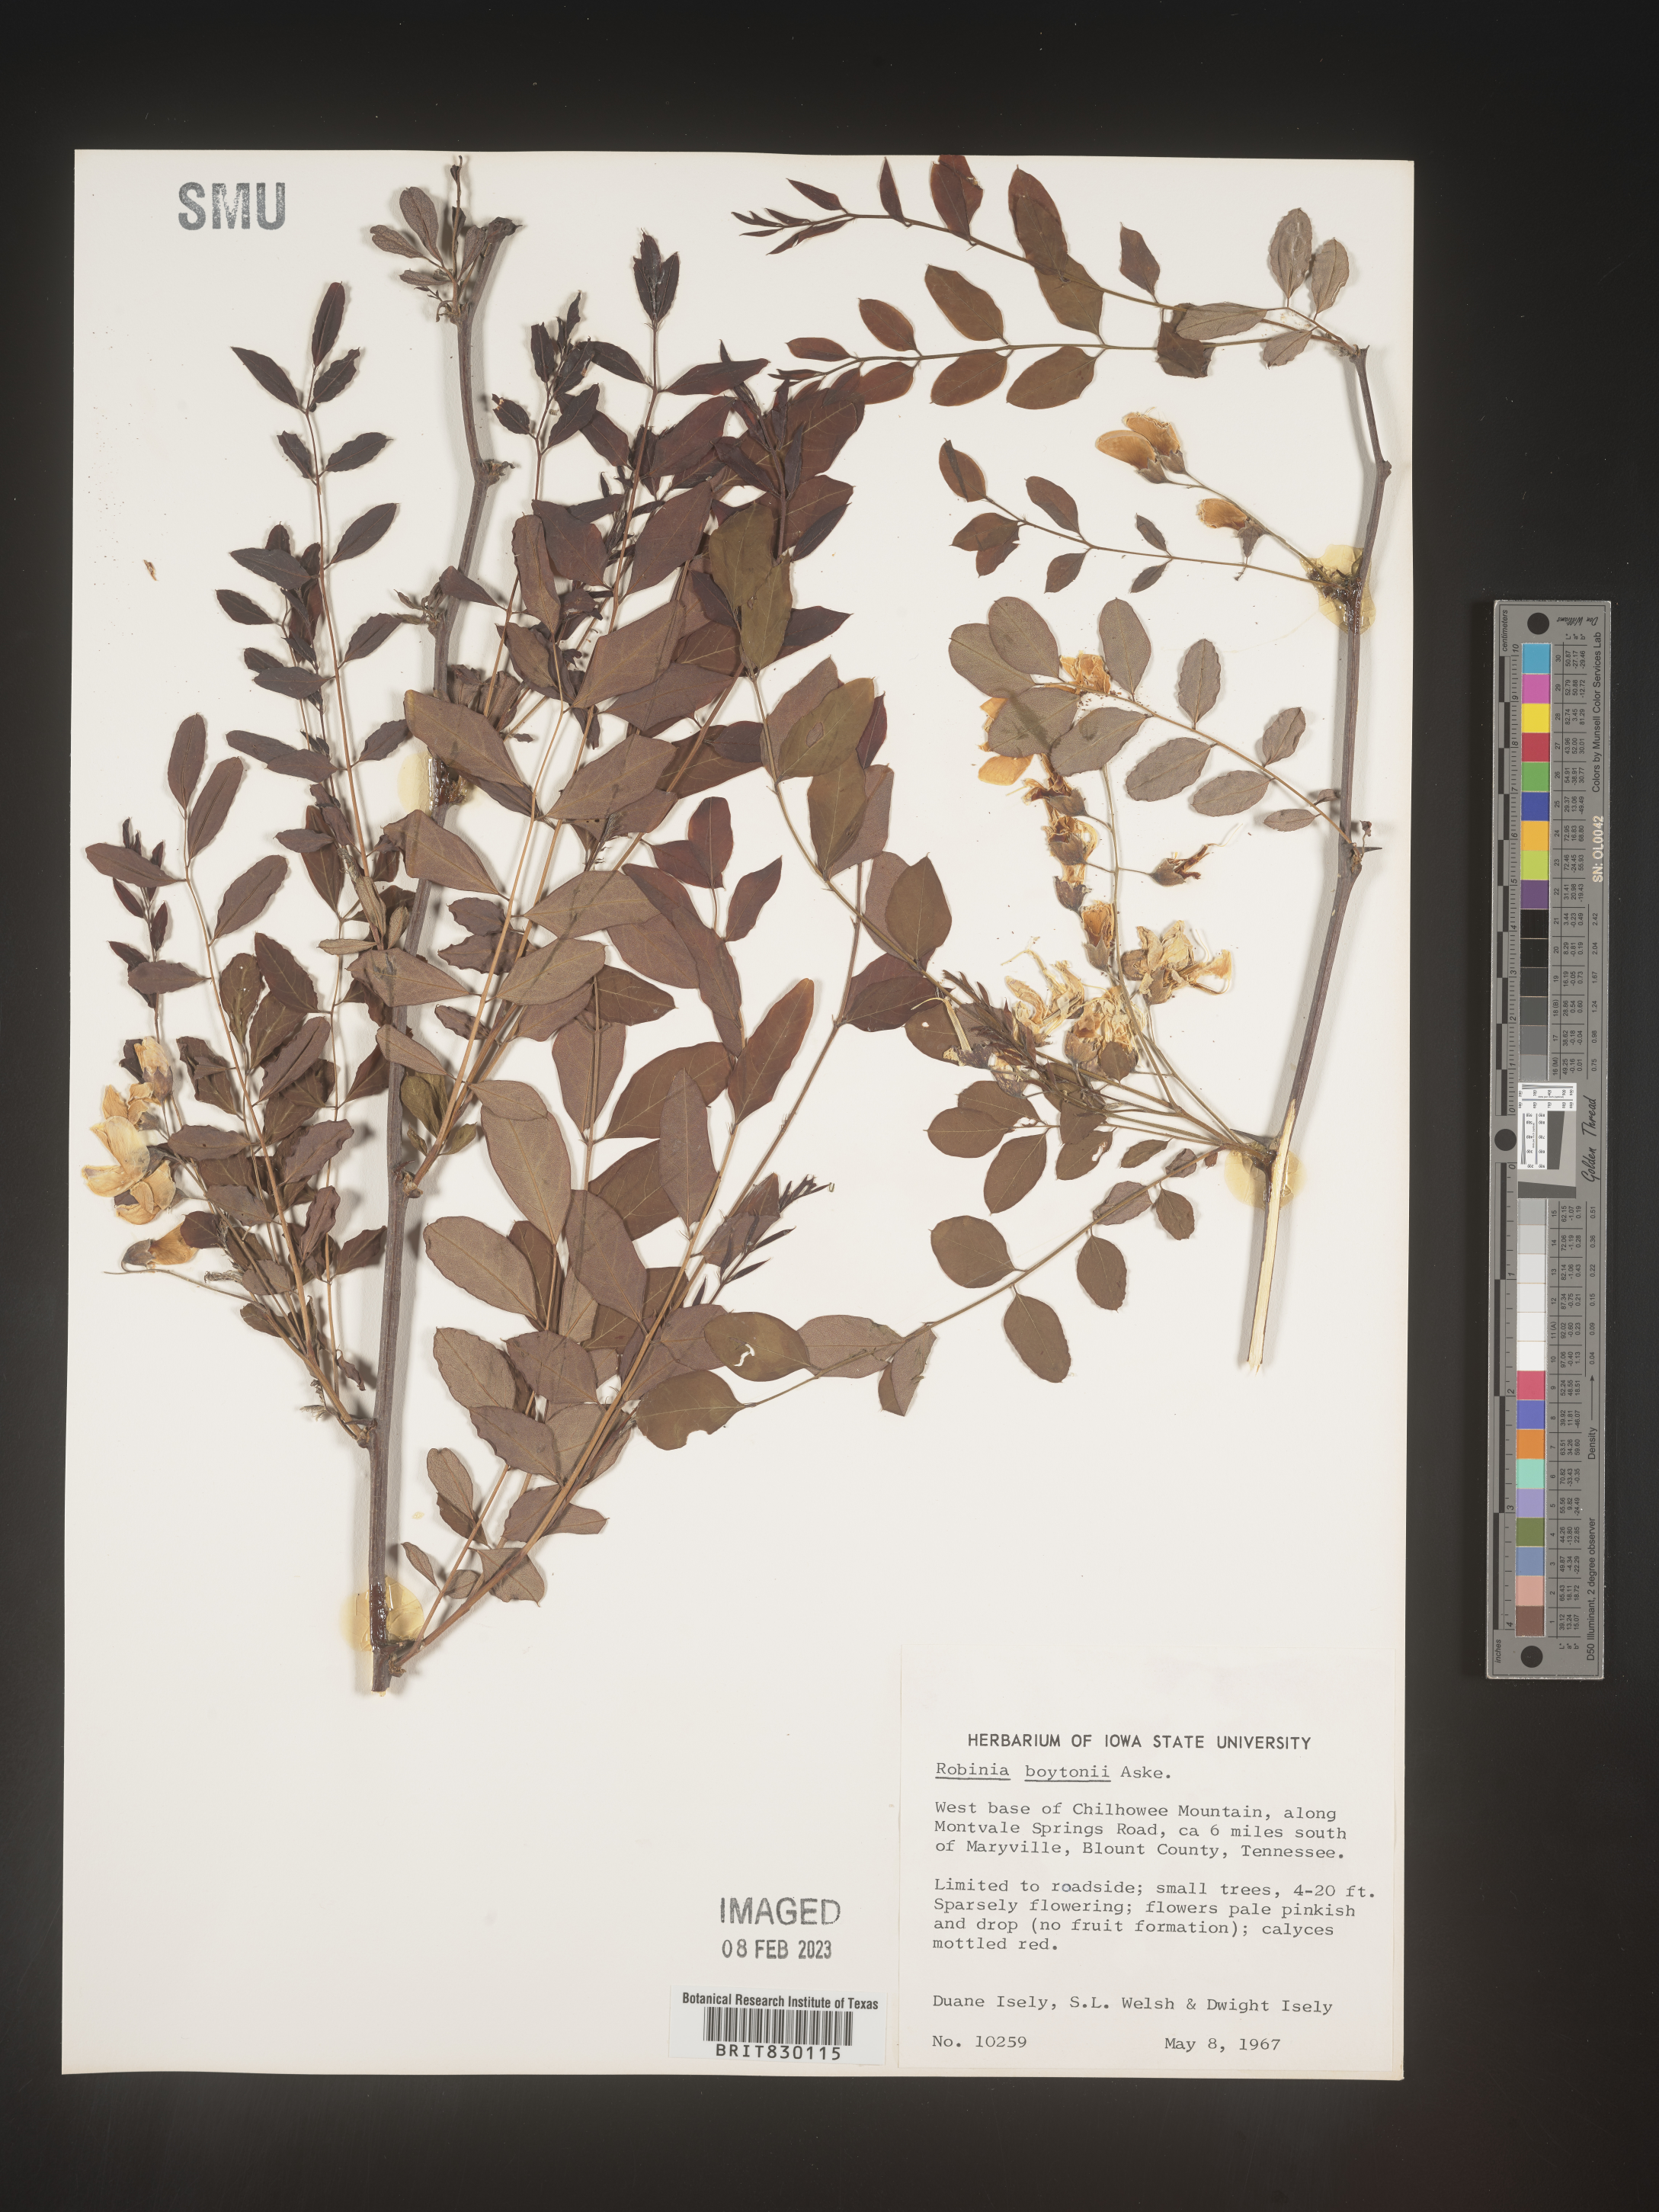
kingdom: Plantae
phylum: Tracheophyta
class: Magnoliopsida
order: Fabales
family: Fabaceae
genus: Robinia
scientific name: Robinia
